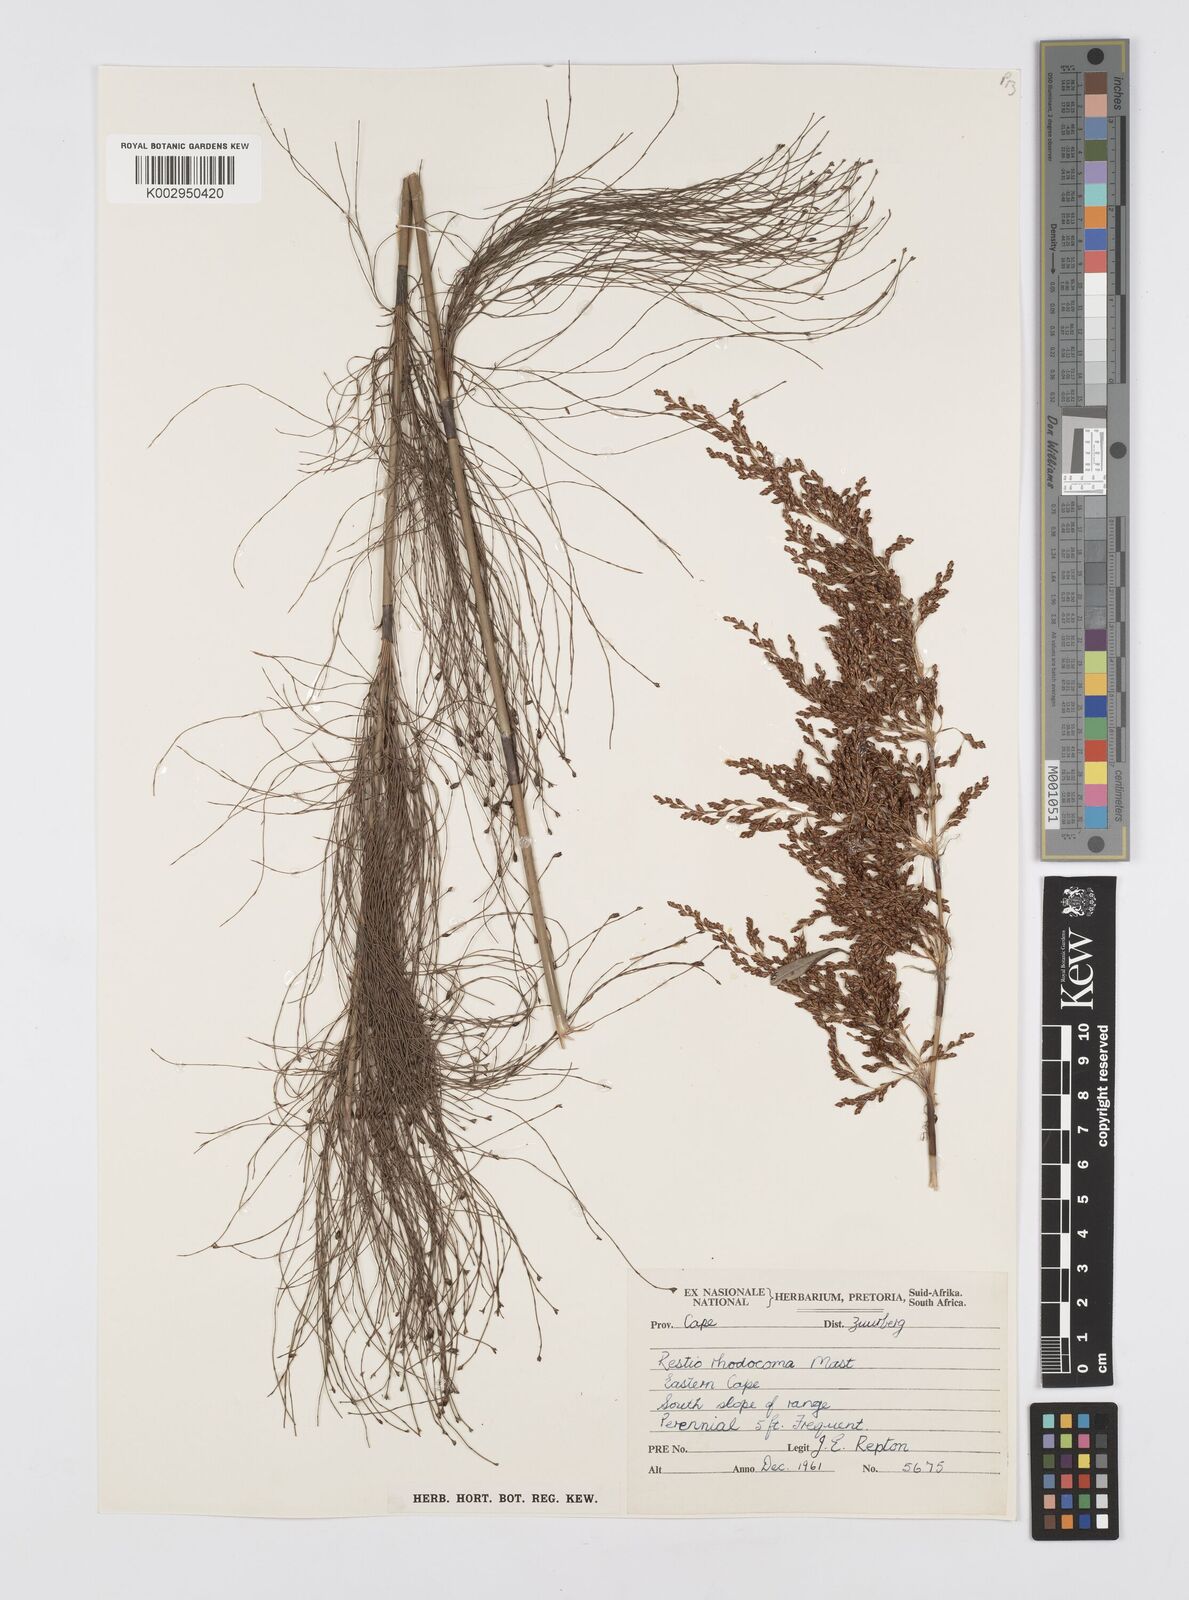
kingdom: Plantae
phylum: Tracheophyta
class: Liliopsida
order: Poales
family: Restionaceae
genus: Rhodocoma
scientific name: Rhodocoma capensis
